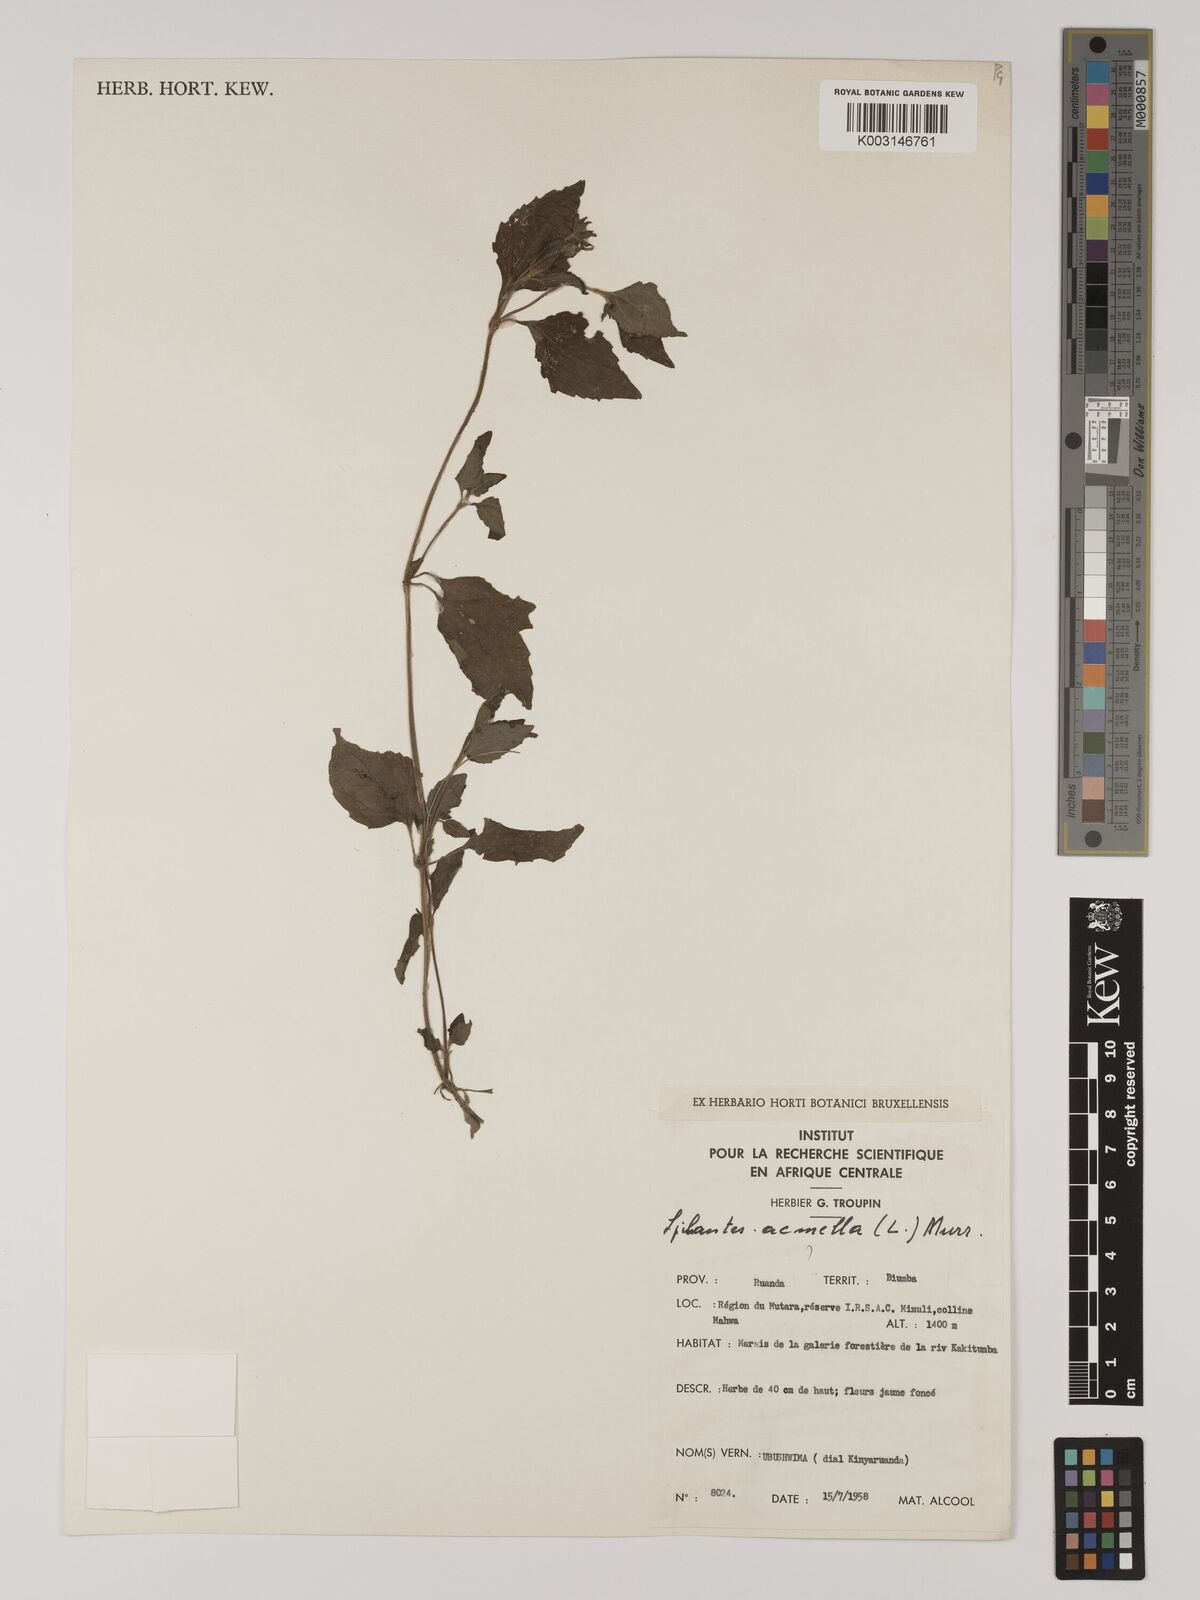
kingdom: Plantae
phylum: Tracheophyta
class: Magnoliopsida
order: Asterales
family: Asteraceae
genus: Blainvillea
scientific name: Blainvillea acmella
